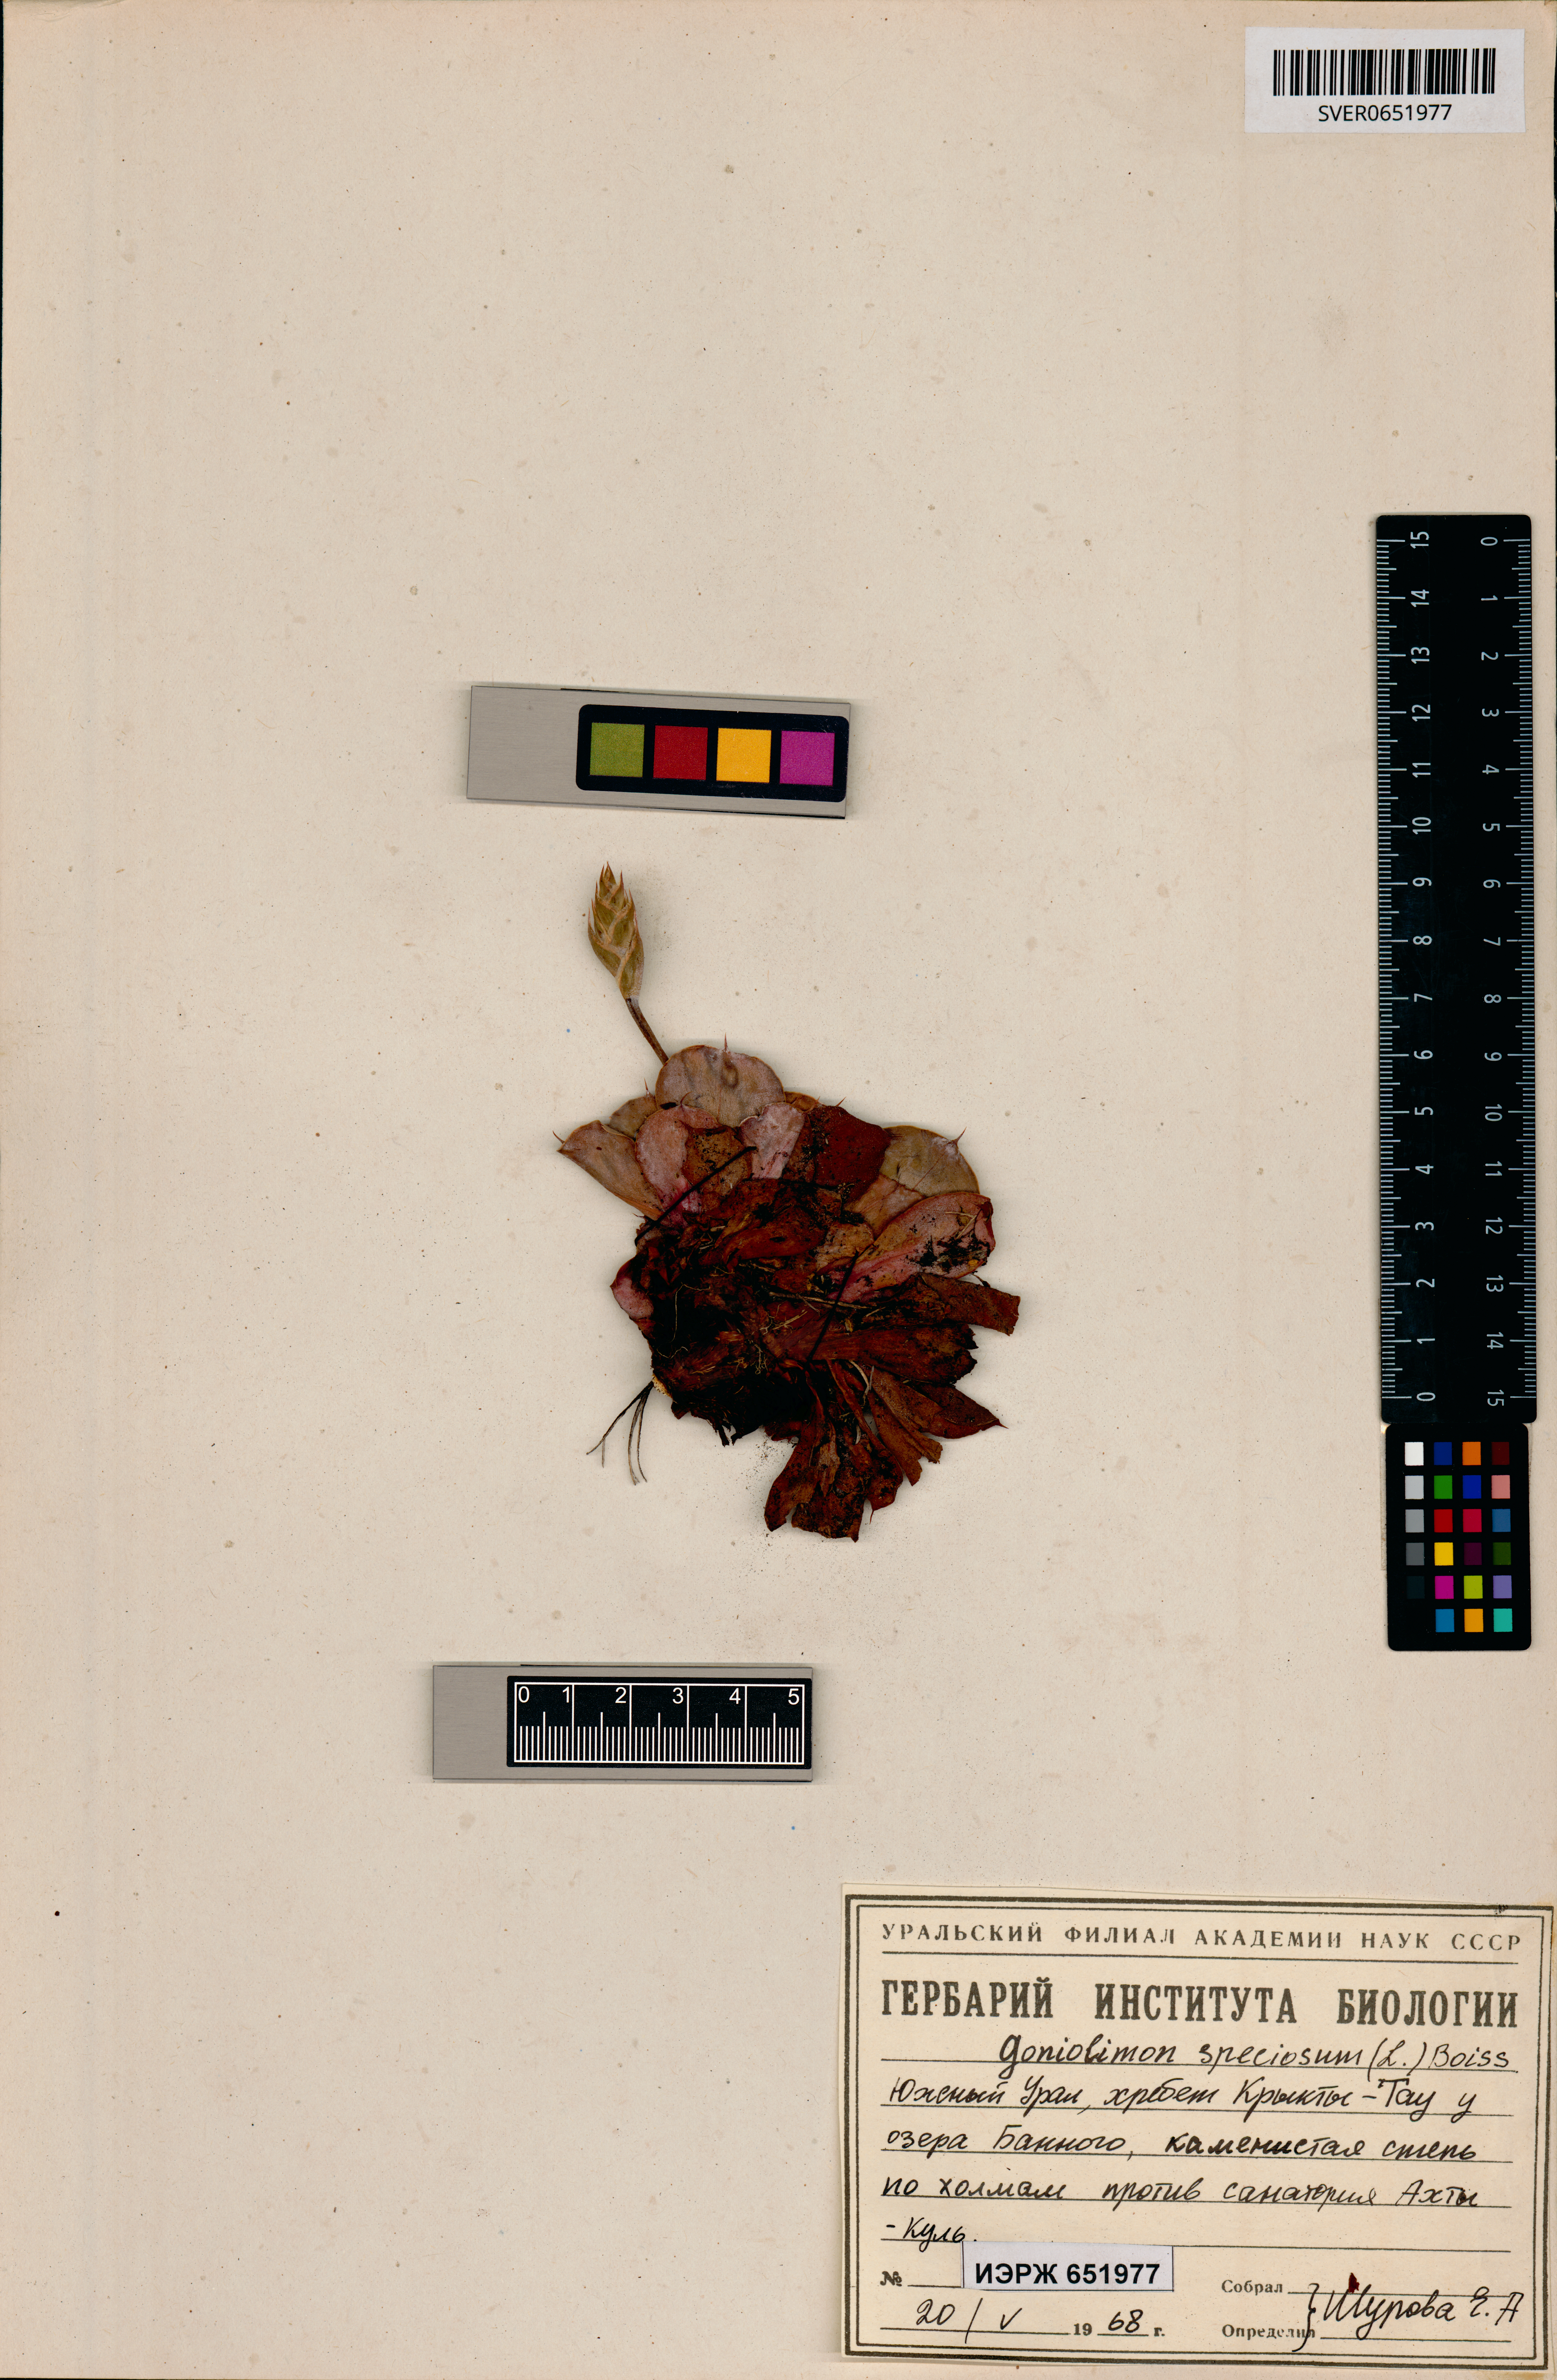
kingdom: Plantae
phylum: Tracheophyta
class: Magnoliopsida
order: Caryophyllales
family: Plumbaginaceae
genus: Goniolimon
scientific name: Goniolimon speciosum
